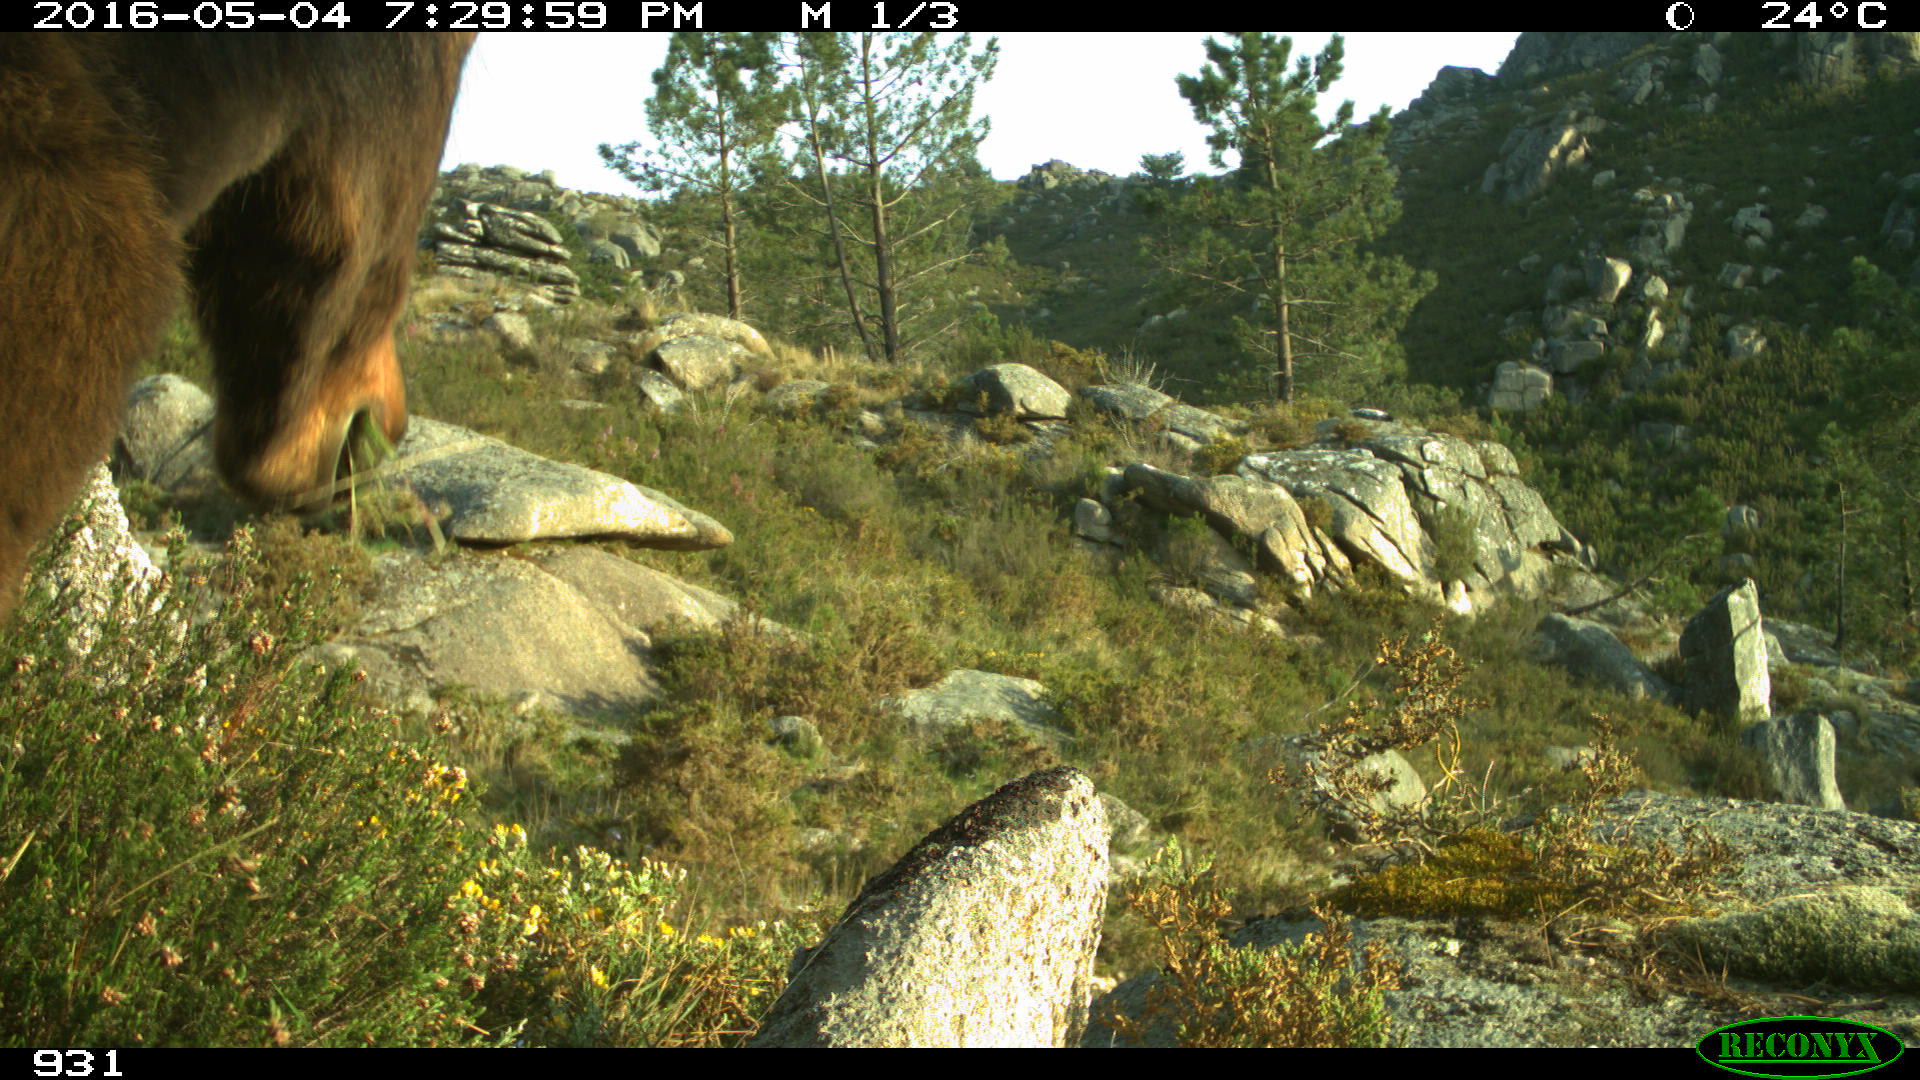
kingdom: Animalia
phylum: Chordata
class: Mammalia
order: Perissodactyla
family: Equidae
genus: Equus
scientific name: Equus caballus
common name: Horse
